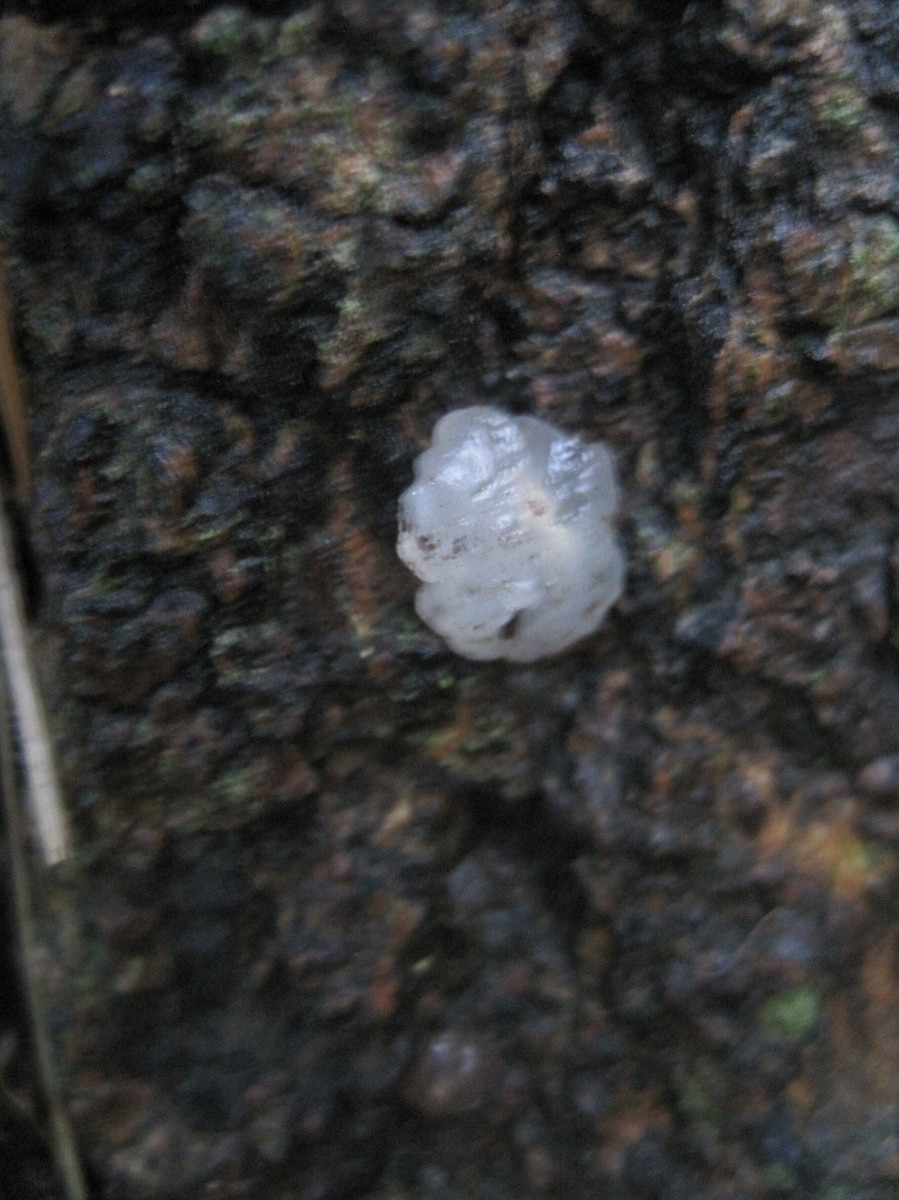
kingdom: Fungi
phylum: Basidiomycota
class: Agaricomycetes
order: Auriculariales
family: Hyaloriaceae
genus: Myxarium
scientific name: Myxarium nucleatum
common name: klar bævretop
